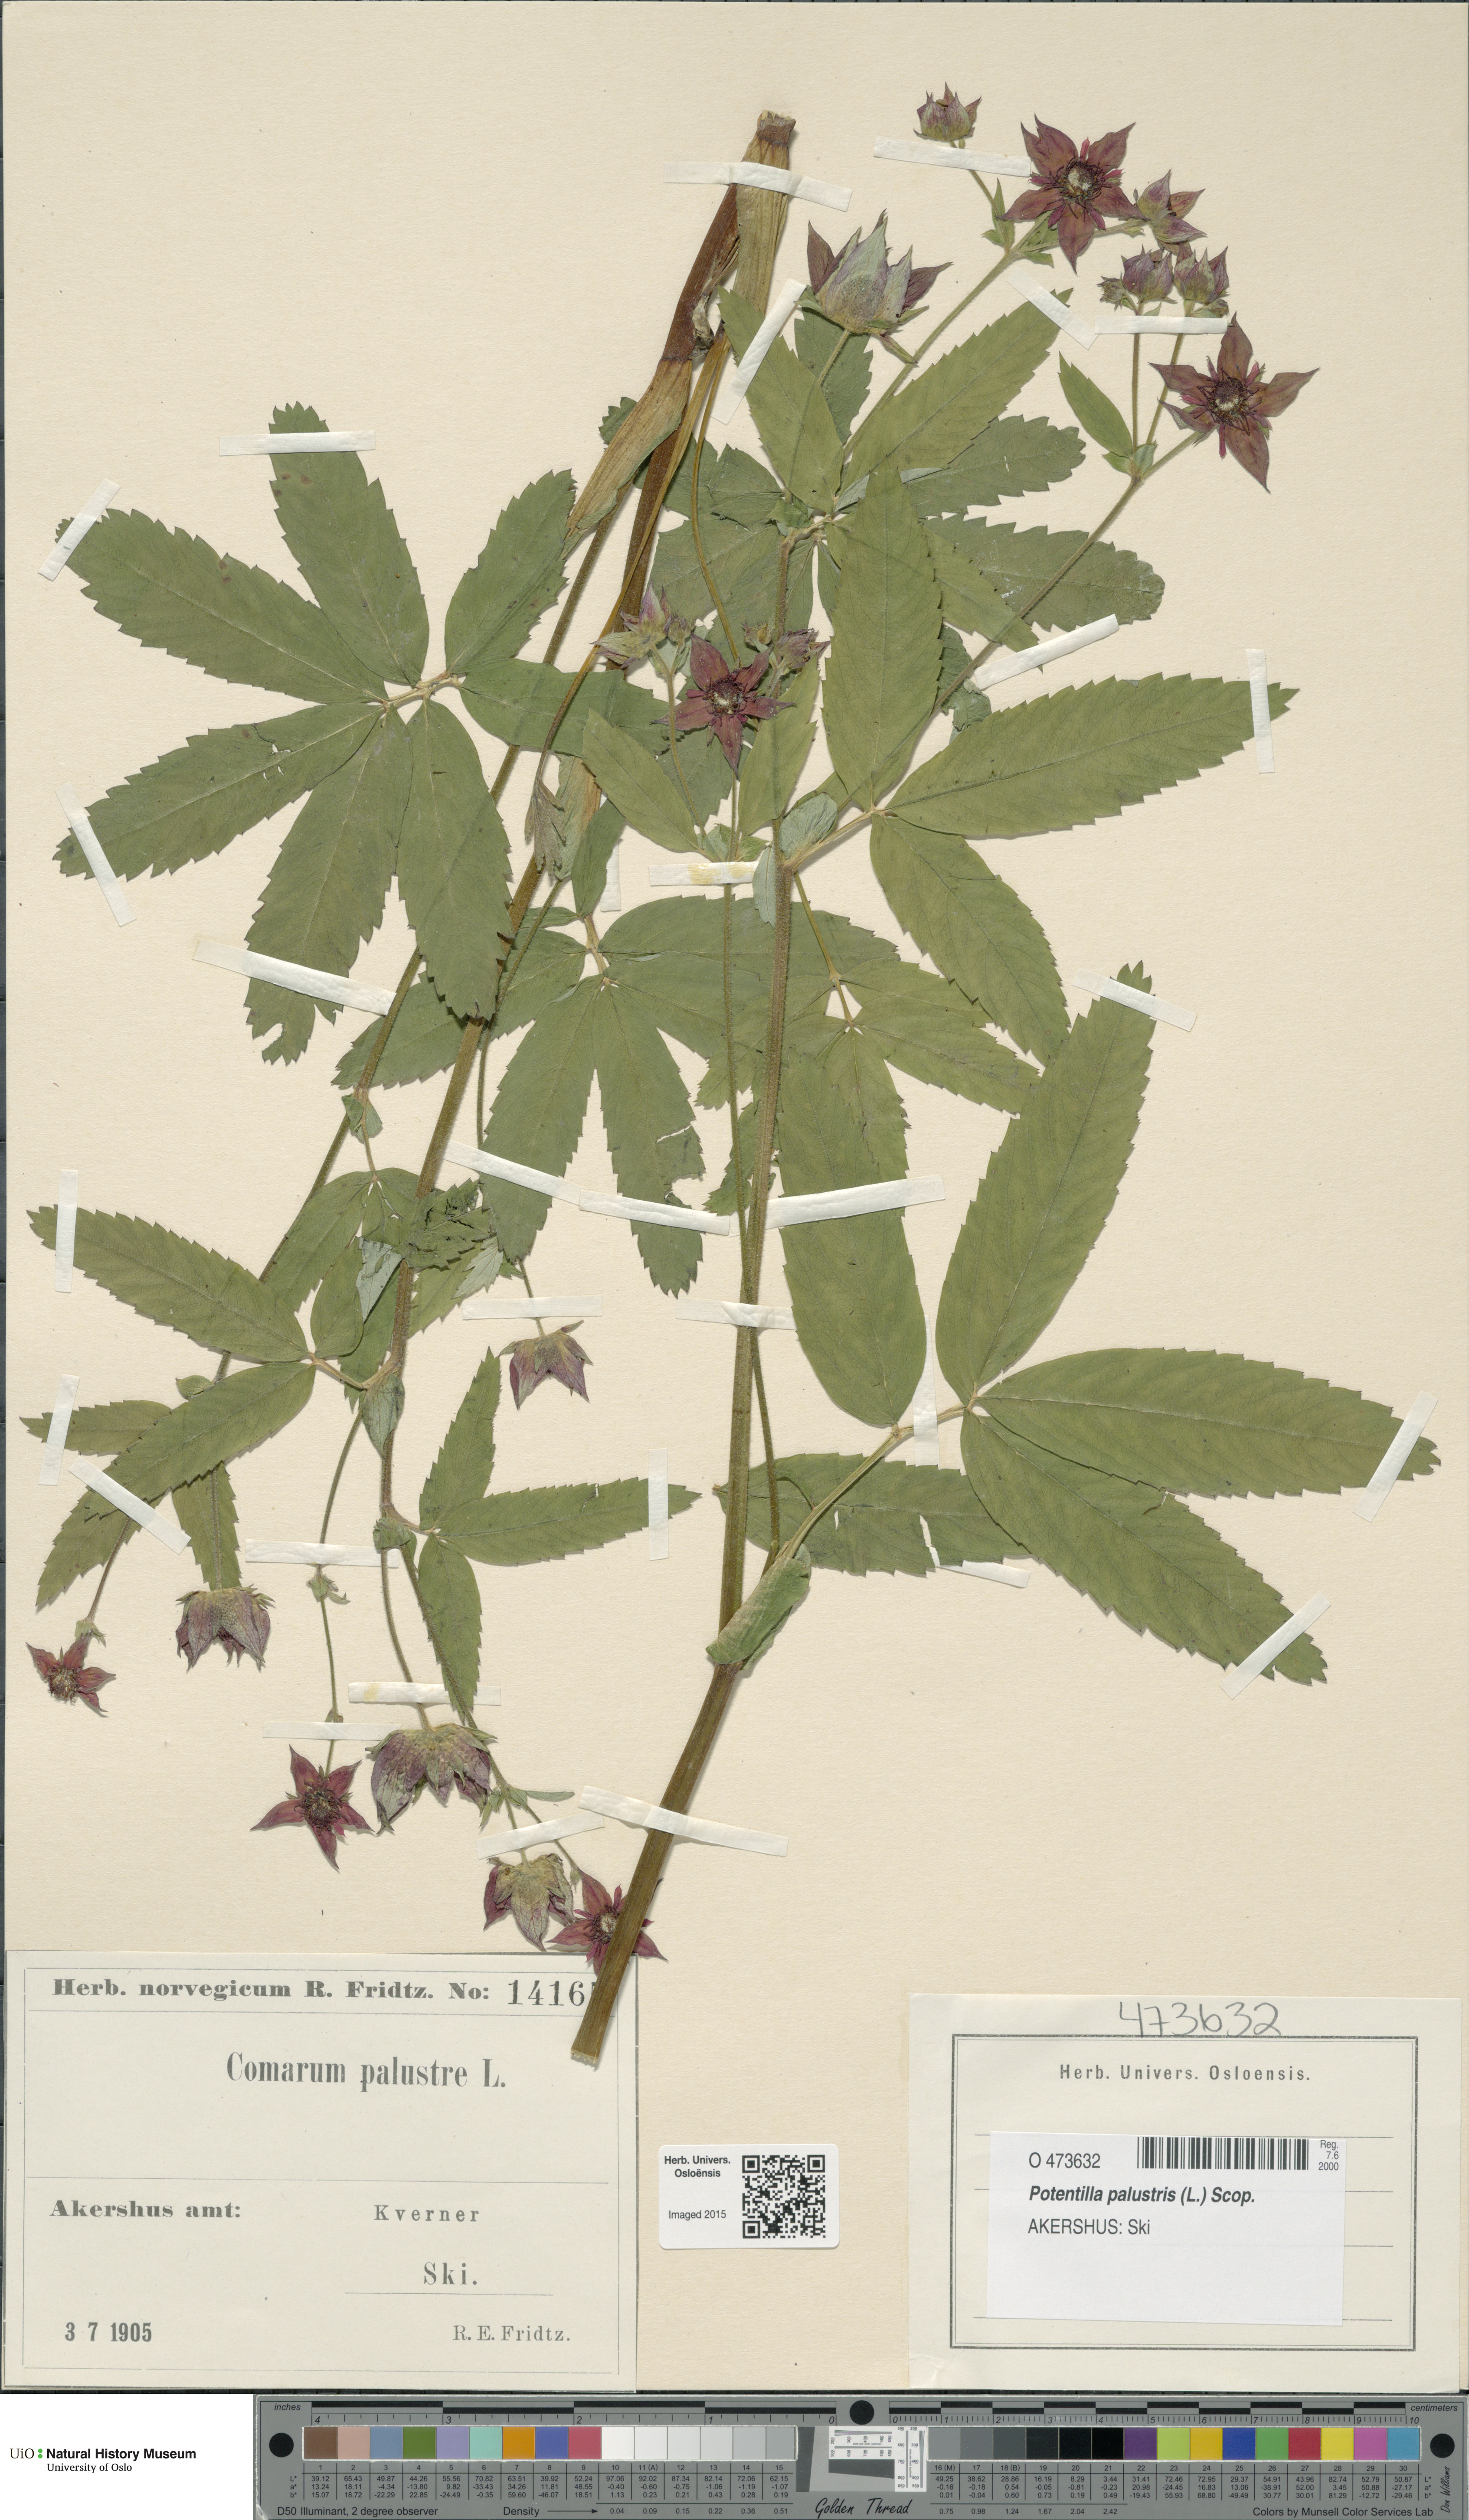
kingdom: Plantae
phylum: Tracheophyta
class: Magnoliopsida
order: Rosales
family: Rosaceae
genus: Comarum
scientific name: Comarum palustre
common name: Marsh cinquefoil
